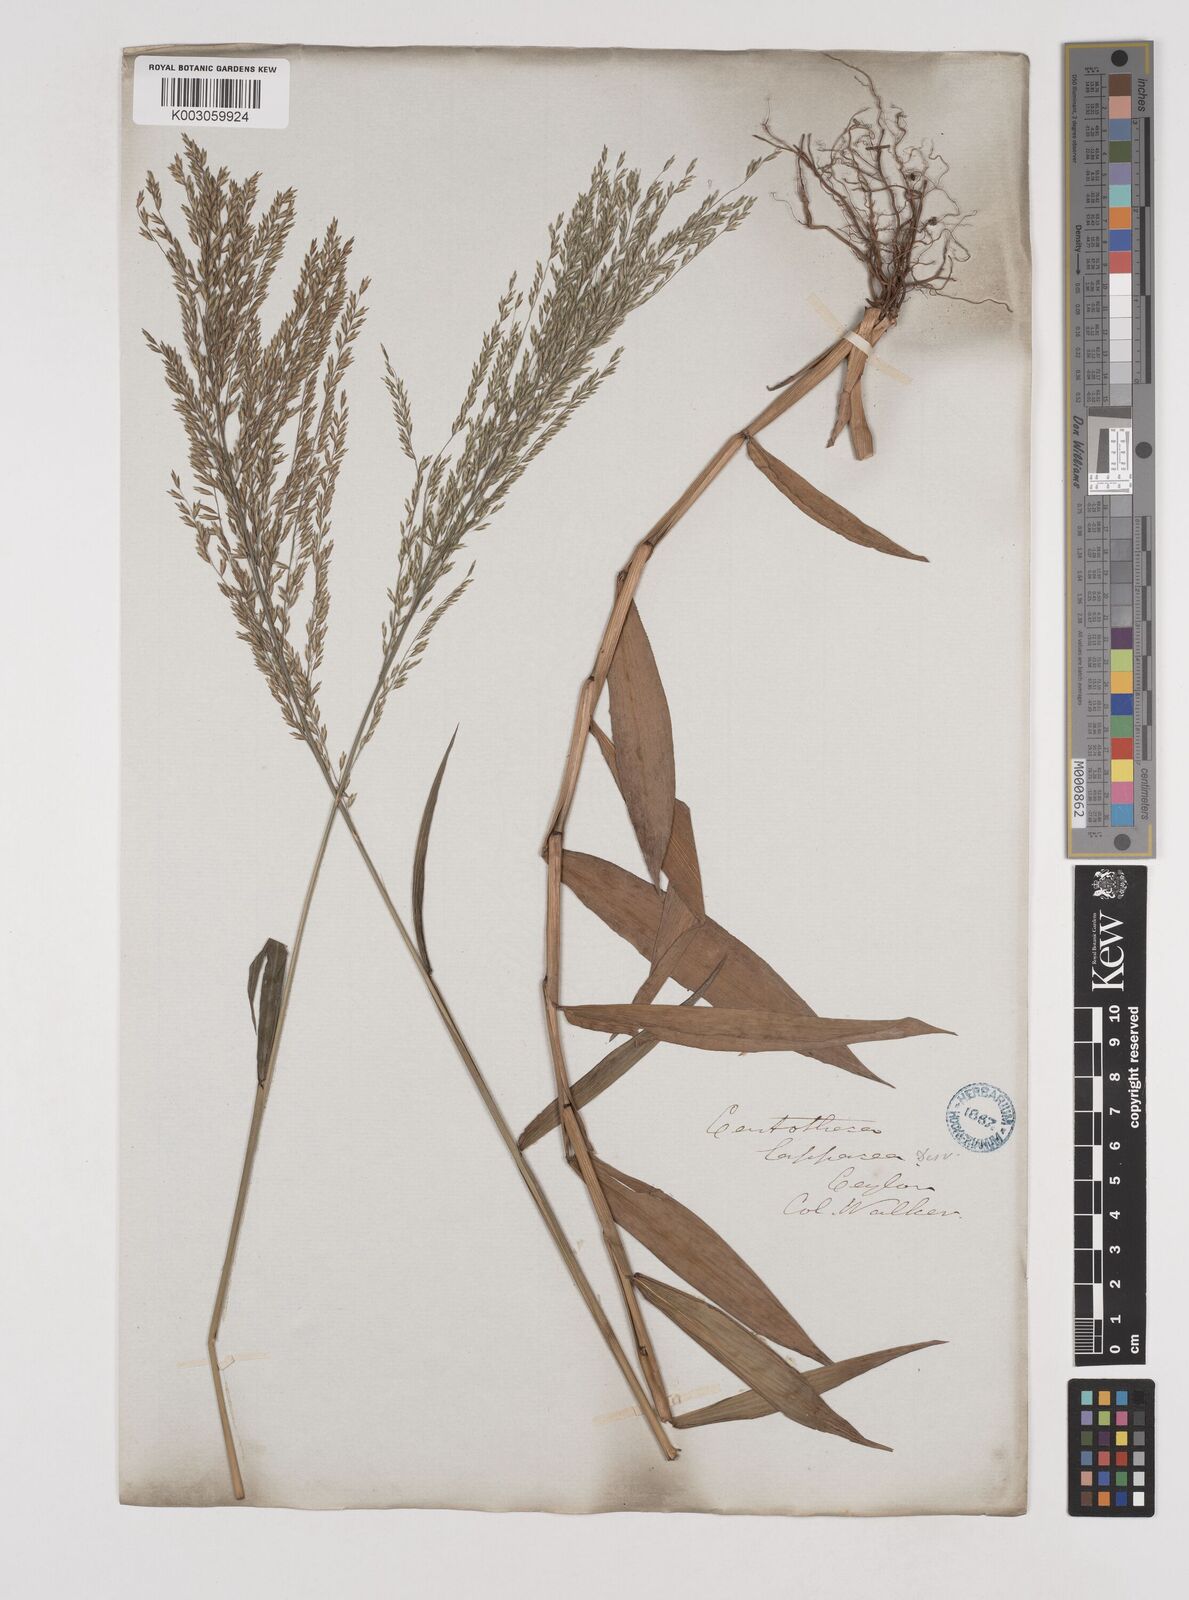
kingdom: Plantae
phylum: Tracheophyta
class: Liliopsida
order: Poales
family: Poaceae
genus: Centotheca
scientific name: Centotheca lappacea
